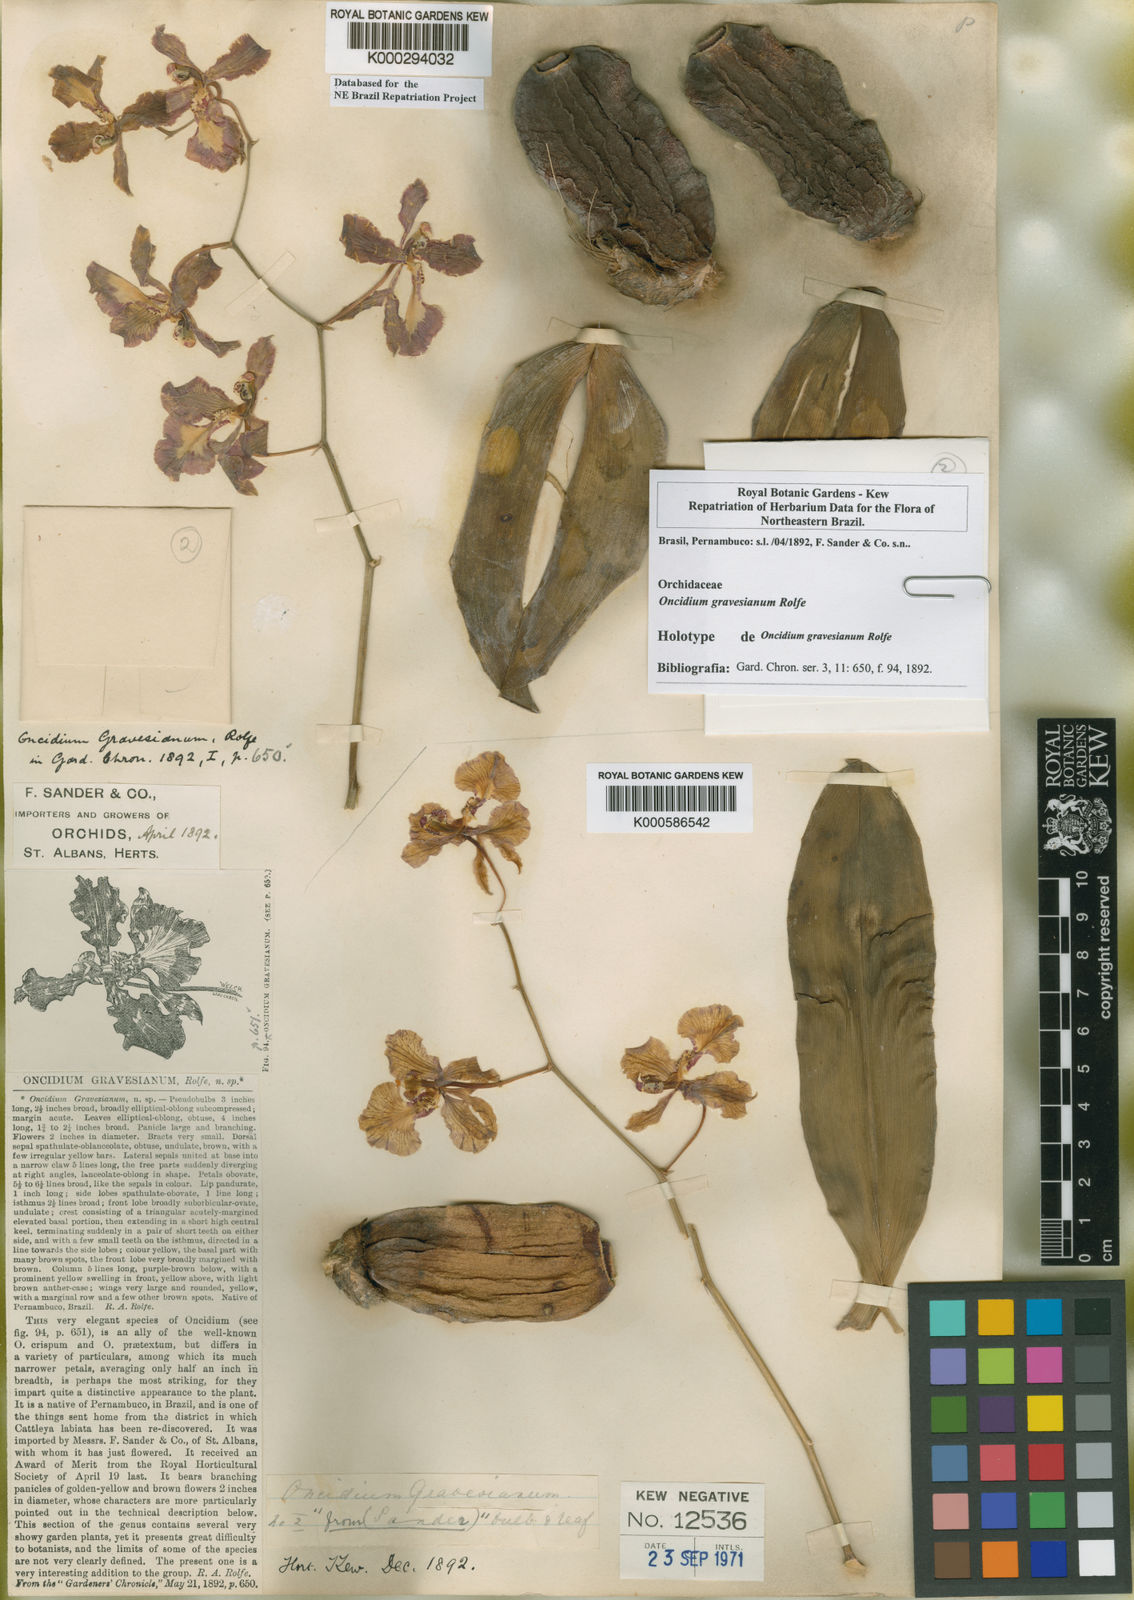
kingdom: Plantae
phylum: Tracheophyta
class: Liliopsida
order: Asparagales
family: Orchidaceae
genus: Gomesa
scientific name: Gomesa praetexta
